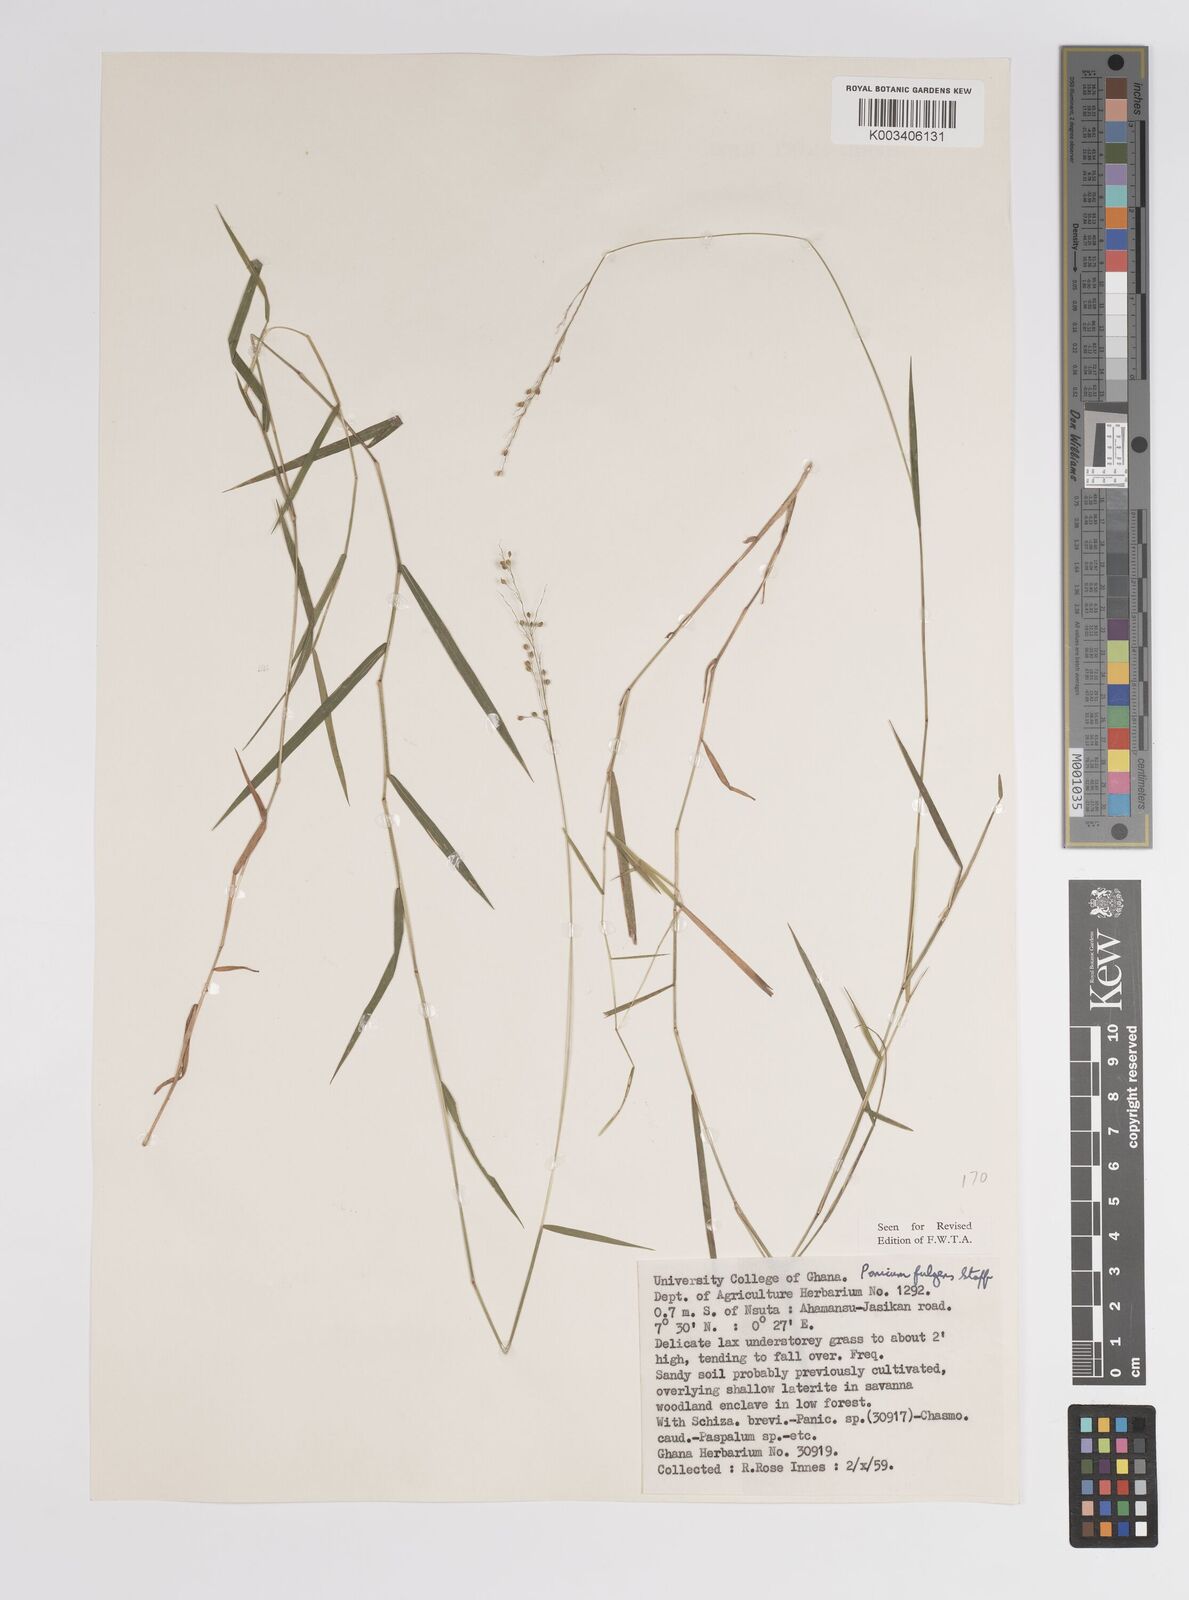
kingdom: Plantae
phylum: Tracheophyta
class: Liliopsida
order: Poales
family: Poaceae
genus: Trichanthecium
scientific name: Trichanthecium nervatum
